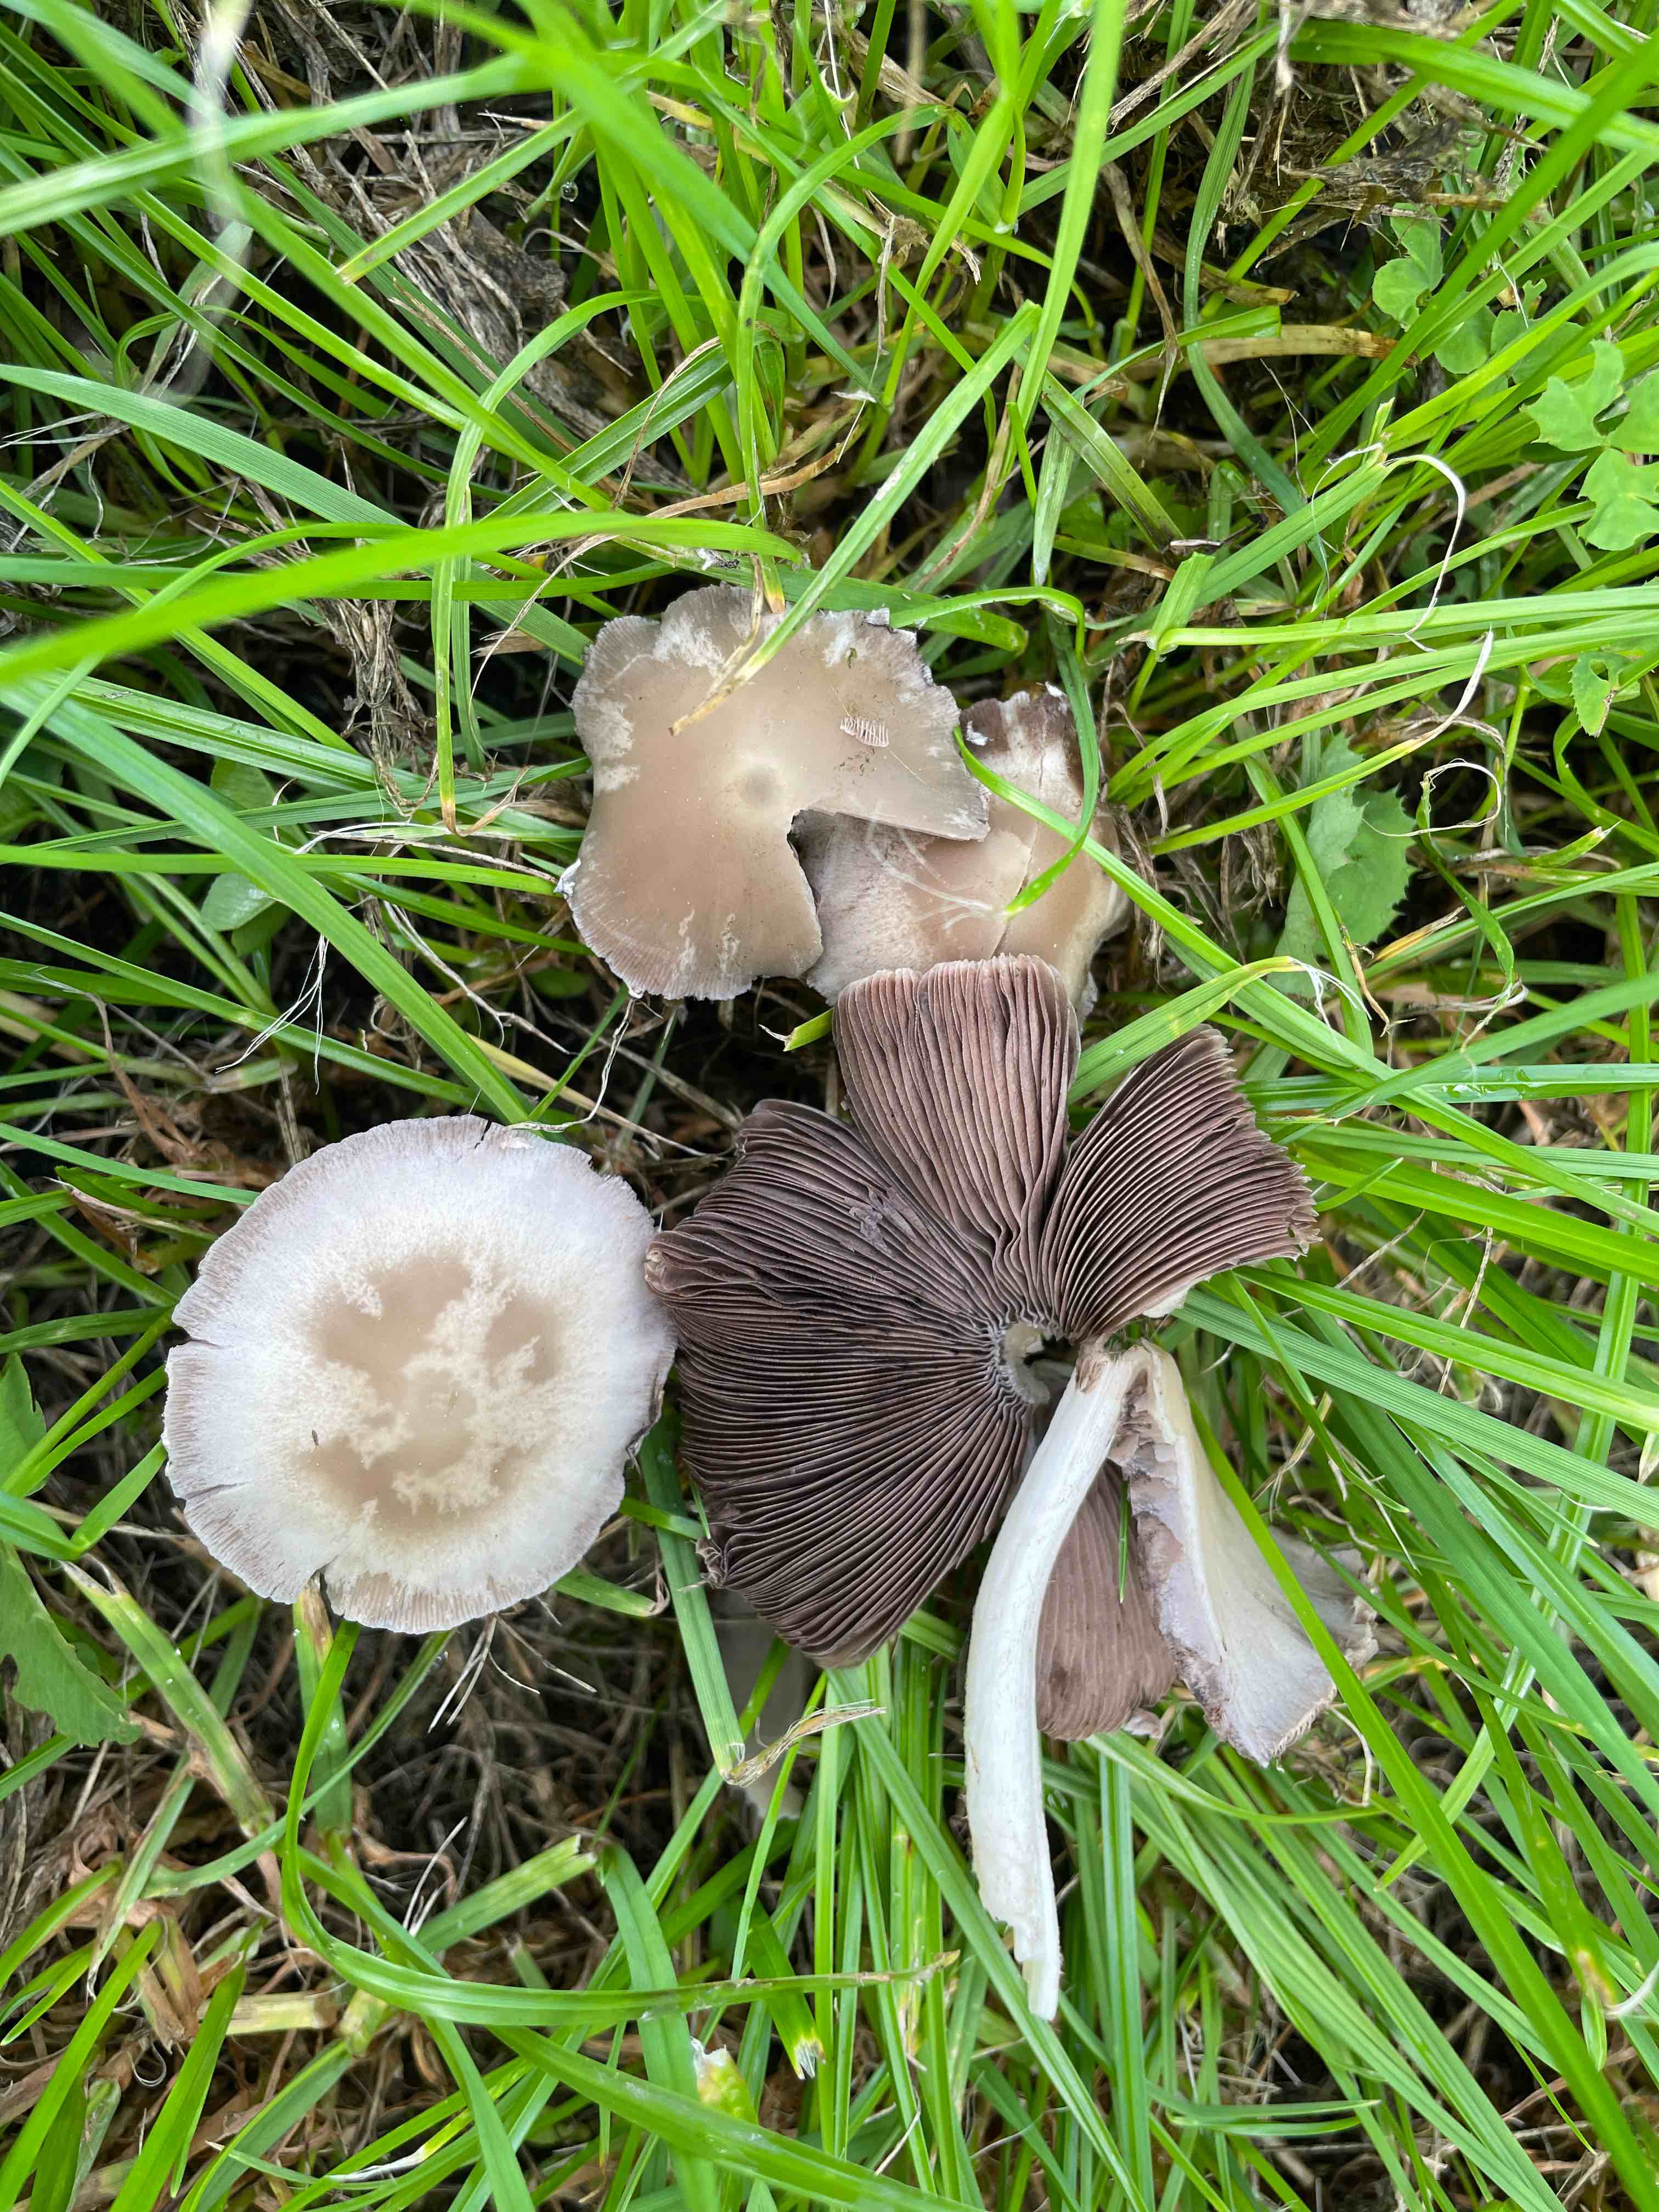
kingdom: Fungi
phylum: Basidiomycota
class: Agaricomycetes
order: Agaricales
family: Psathyrellaceae
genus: Candolleomyces
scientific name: Candolleomyces candolleanus
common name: Candolles mørkhat
